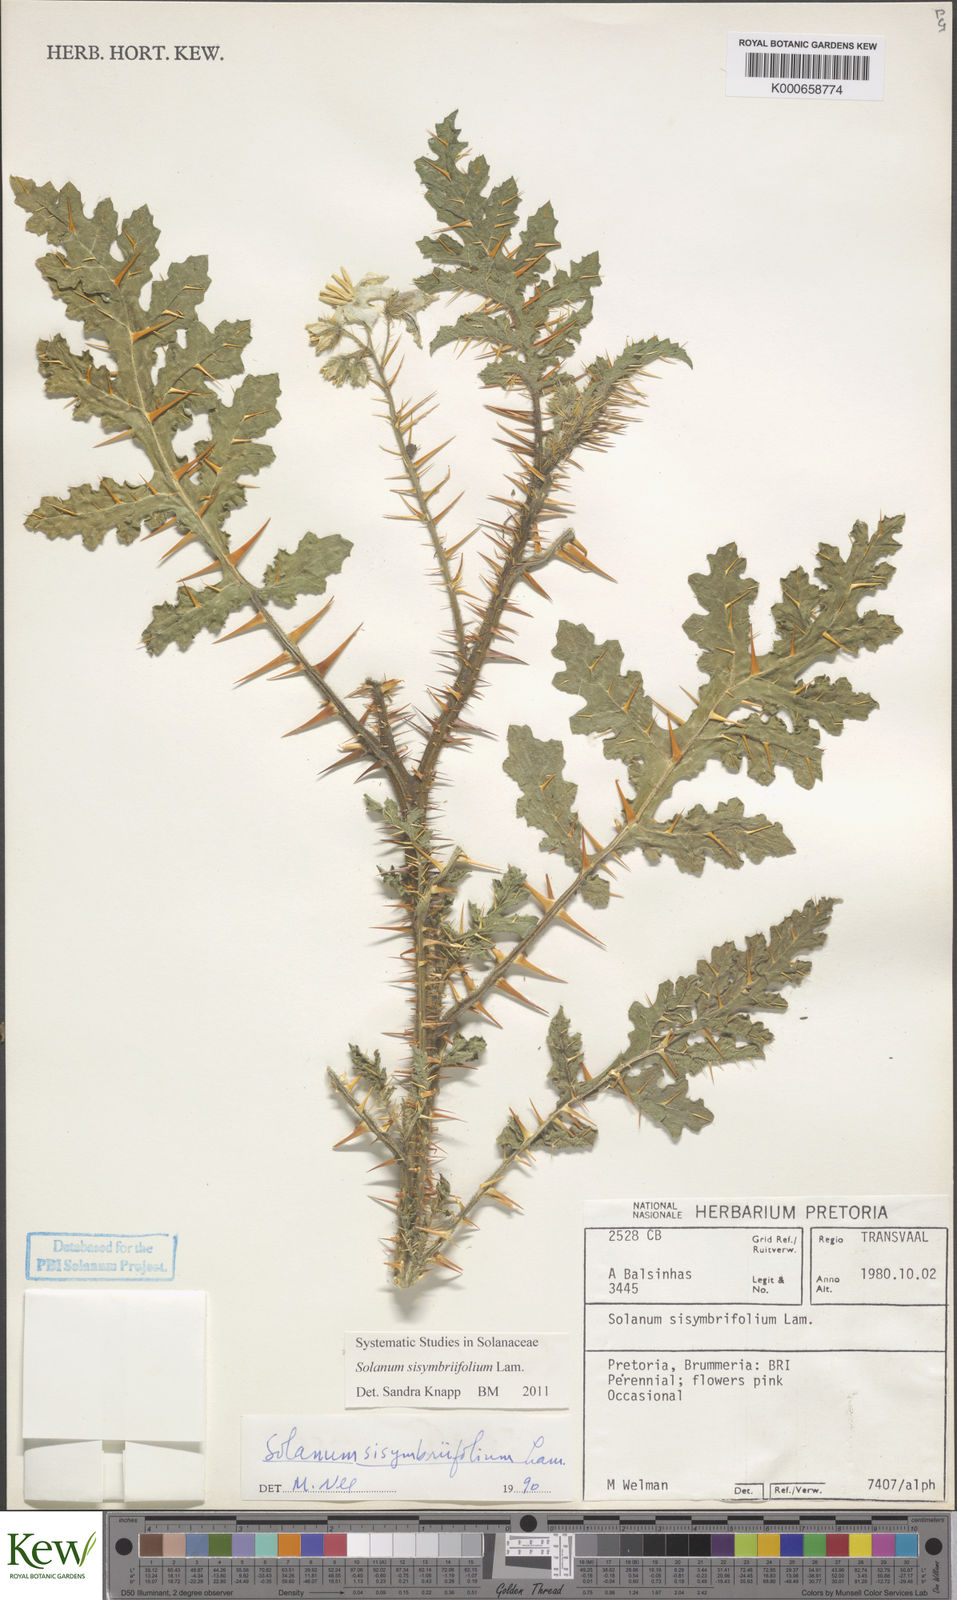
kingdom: Plantae
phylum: Tracheophyta
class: Magnoliopsida
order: Solanales
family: Solanaceae
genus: Solanum
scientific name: Solanum sisymbriifolium
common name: Red buffalo-bur
